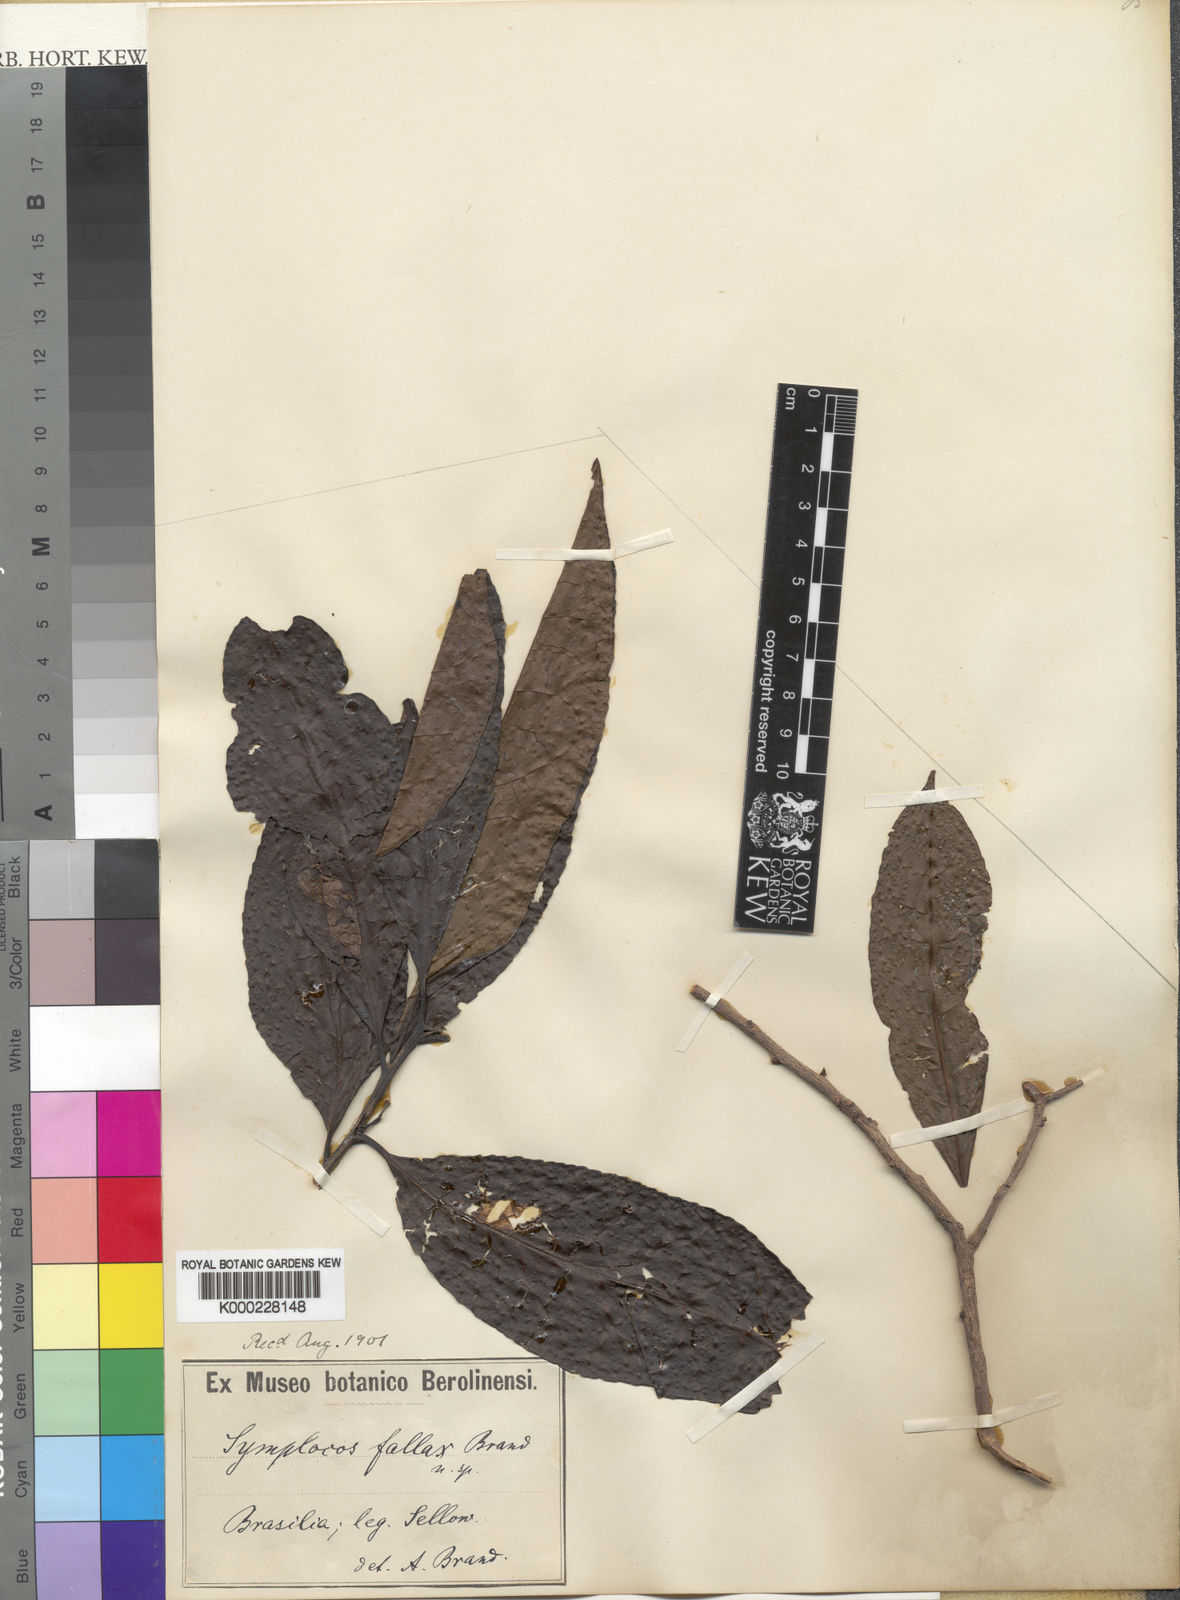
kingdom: Plantae
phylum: Tracheophyta
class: Magnoliopsida
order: Ericales
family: Symplocaceae
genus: Symplocos
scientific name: Symplocos pycnobotrya
